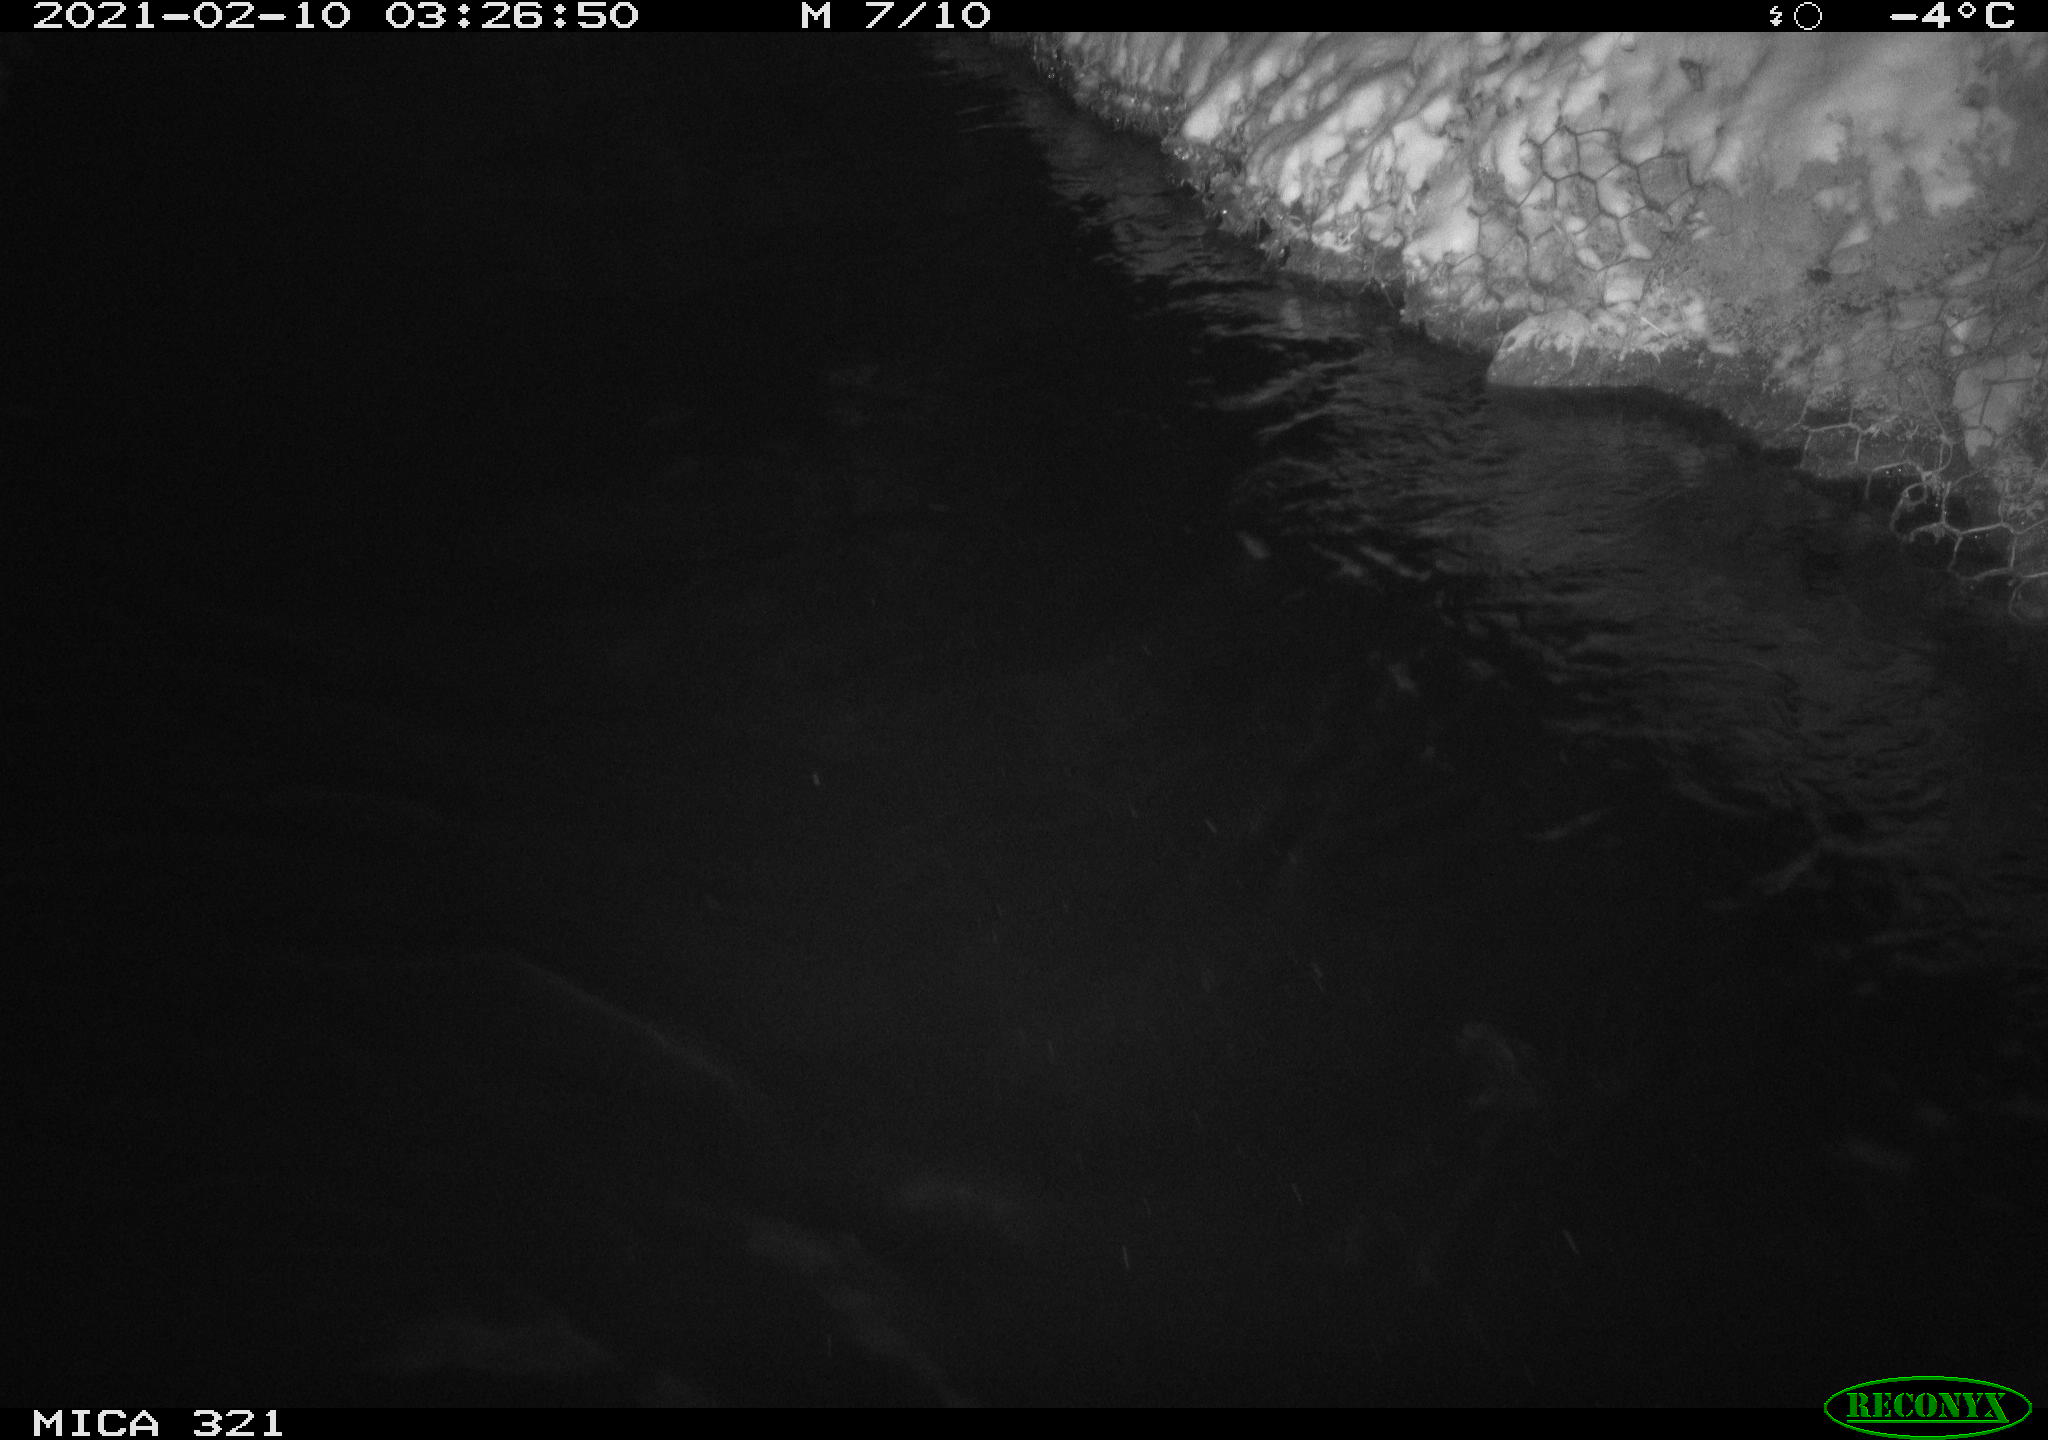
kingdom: Animalia
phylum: Chordata
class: Aves
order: Anseriformes
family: Anatidae
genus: Anas
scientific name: Anas platyrhynchos
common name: Mallard
